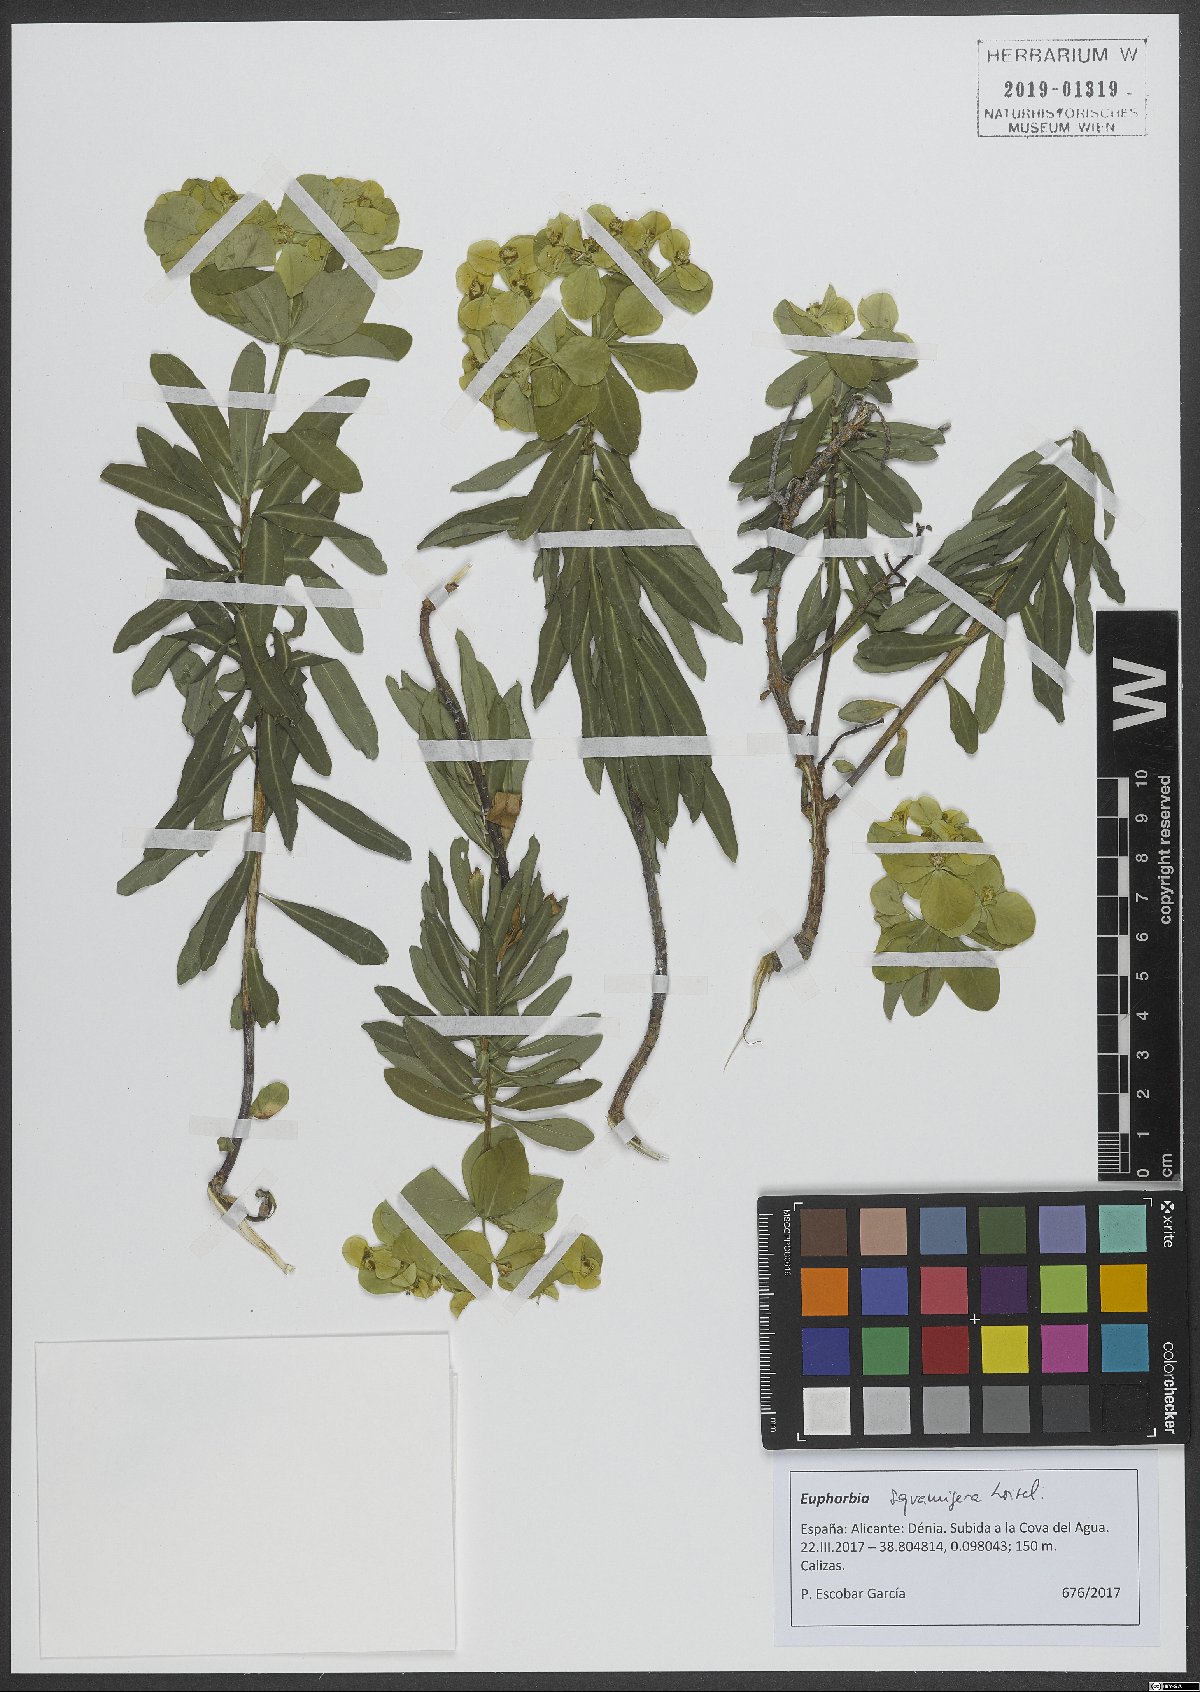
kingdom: Plantae
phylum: Tracheophyta
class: Magnoliopsida
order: Malpighiales
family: Euphorbiaceae
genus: Euphorbia
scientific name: Euphorbia squamigera
